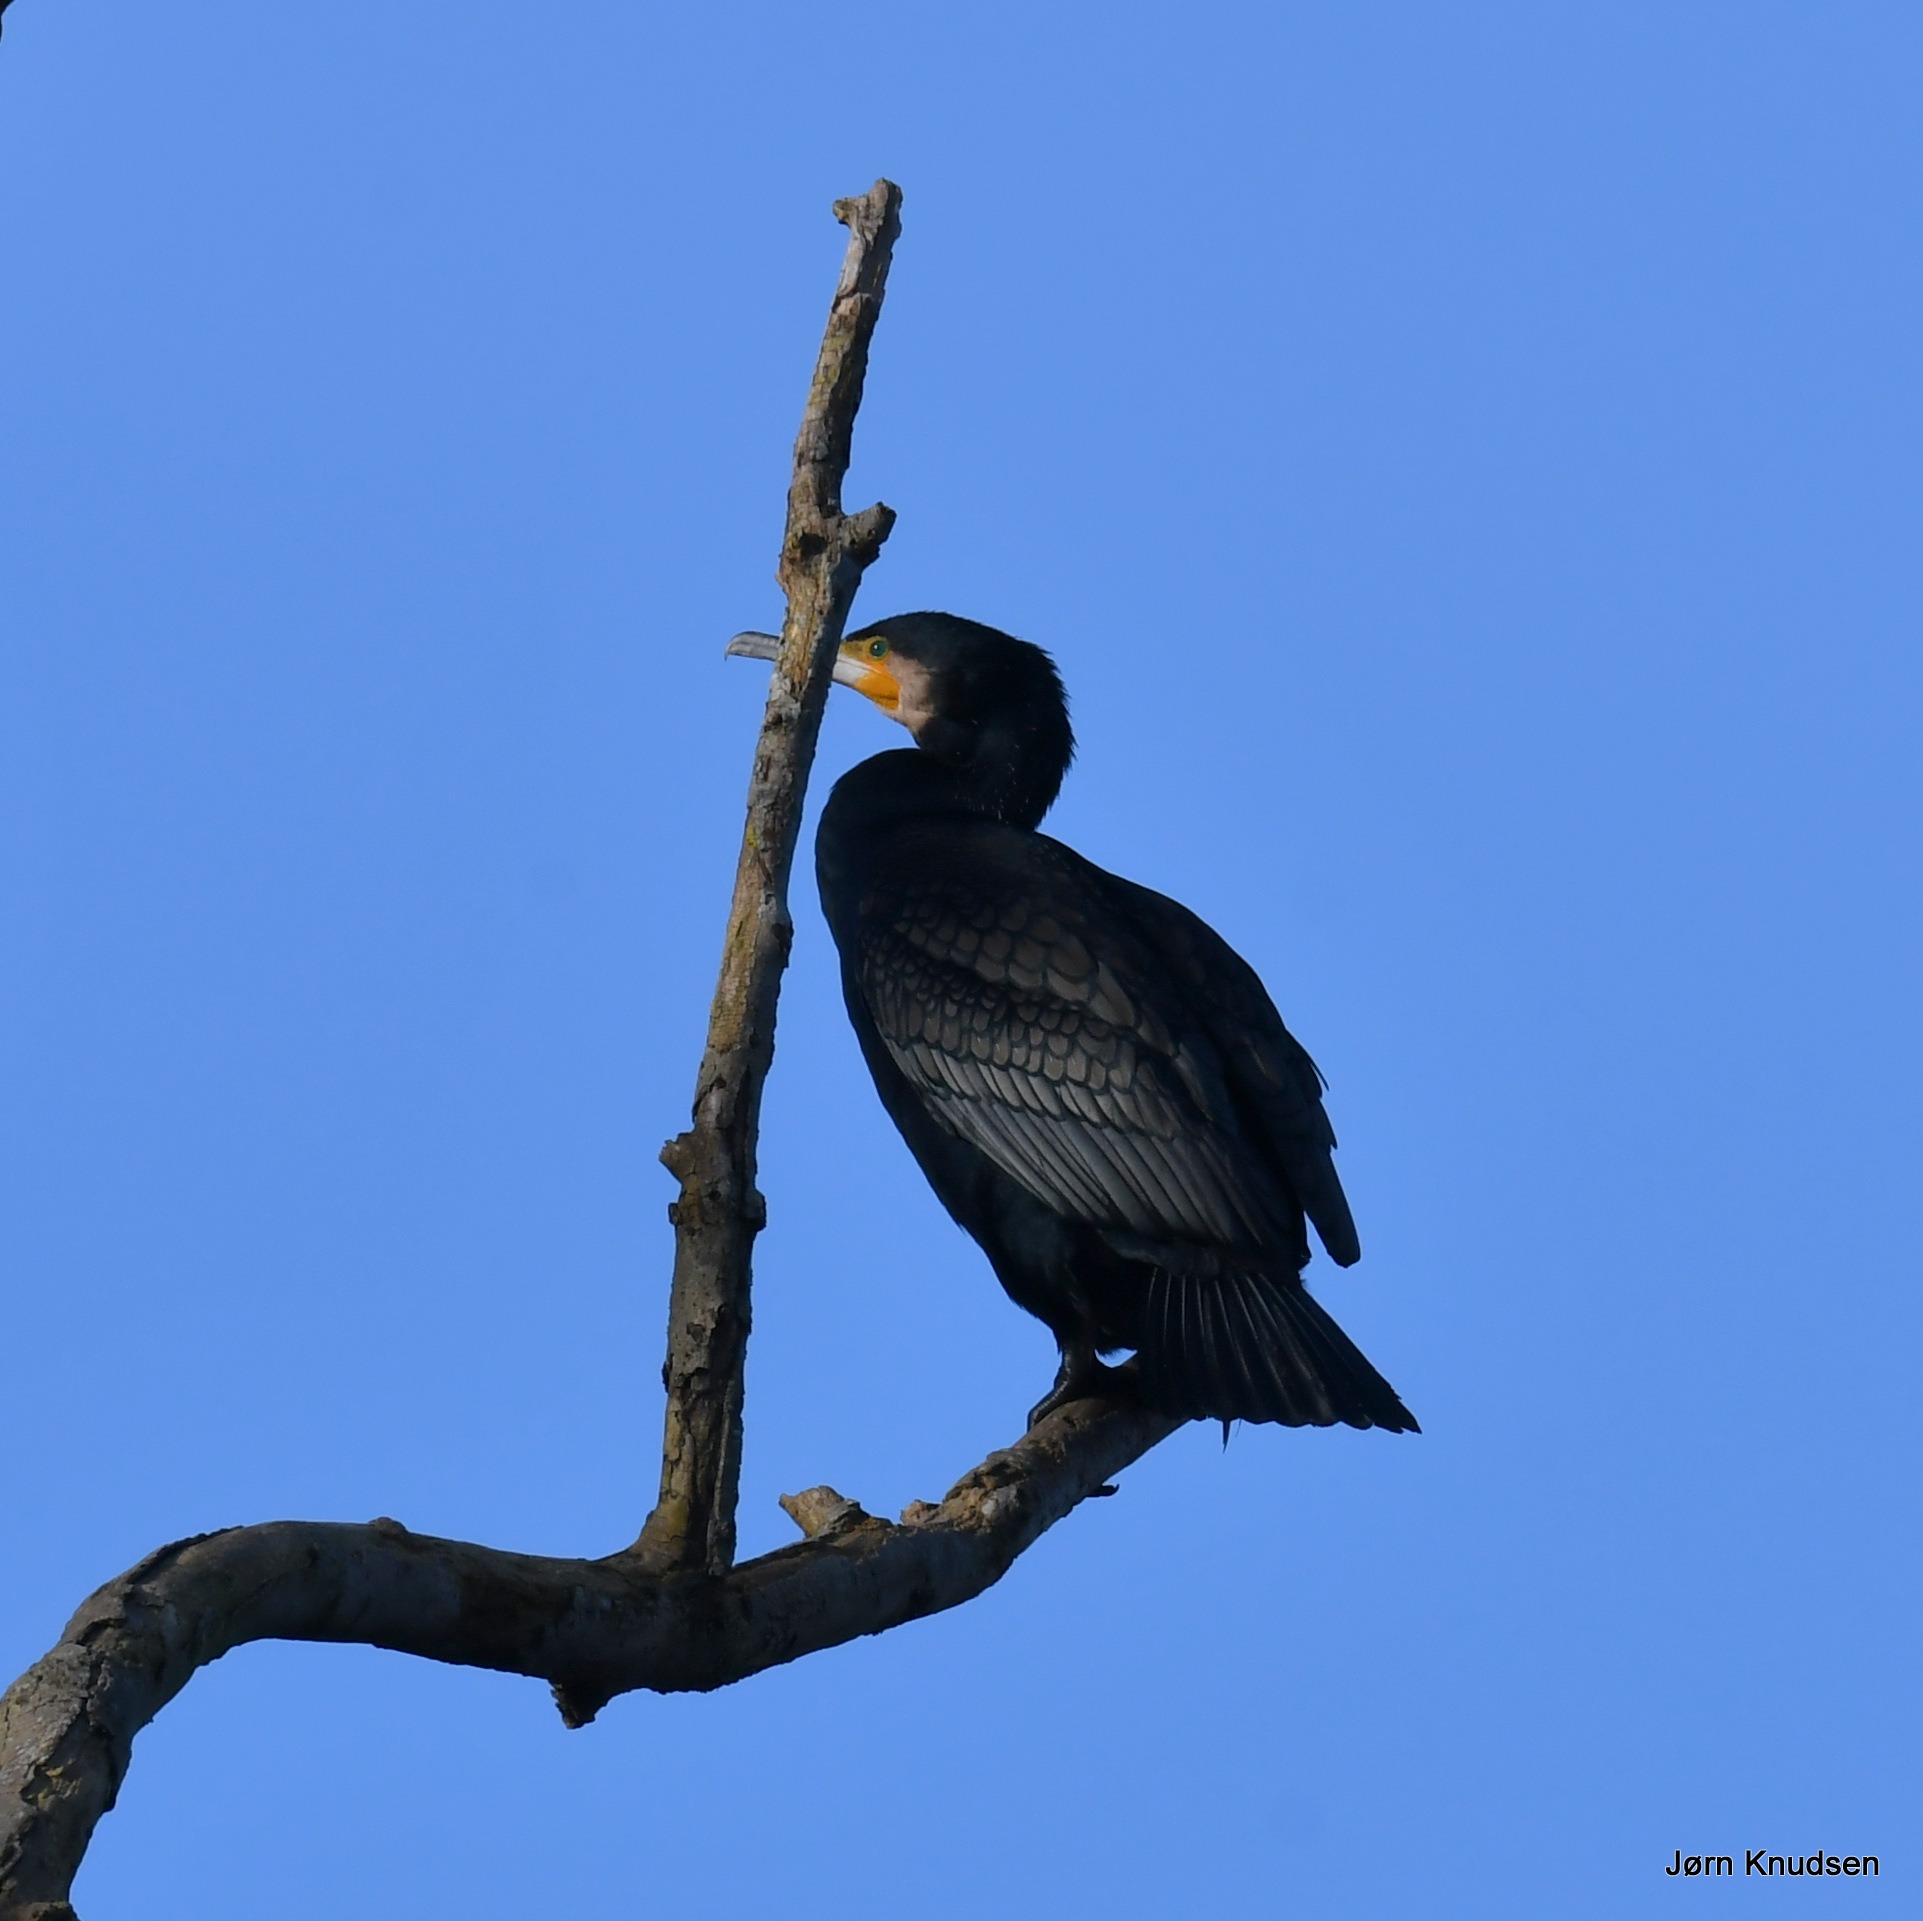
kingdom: Animalia
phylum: Chordata
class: Aves
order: Suliformes
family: Phalacrocoracidae
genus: Phalacrocorax
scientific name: Phalacrocorax carbo
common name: Skarv
